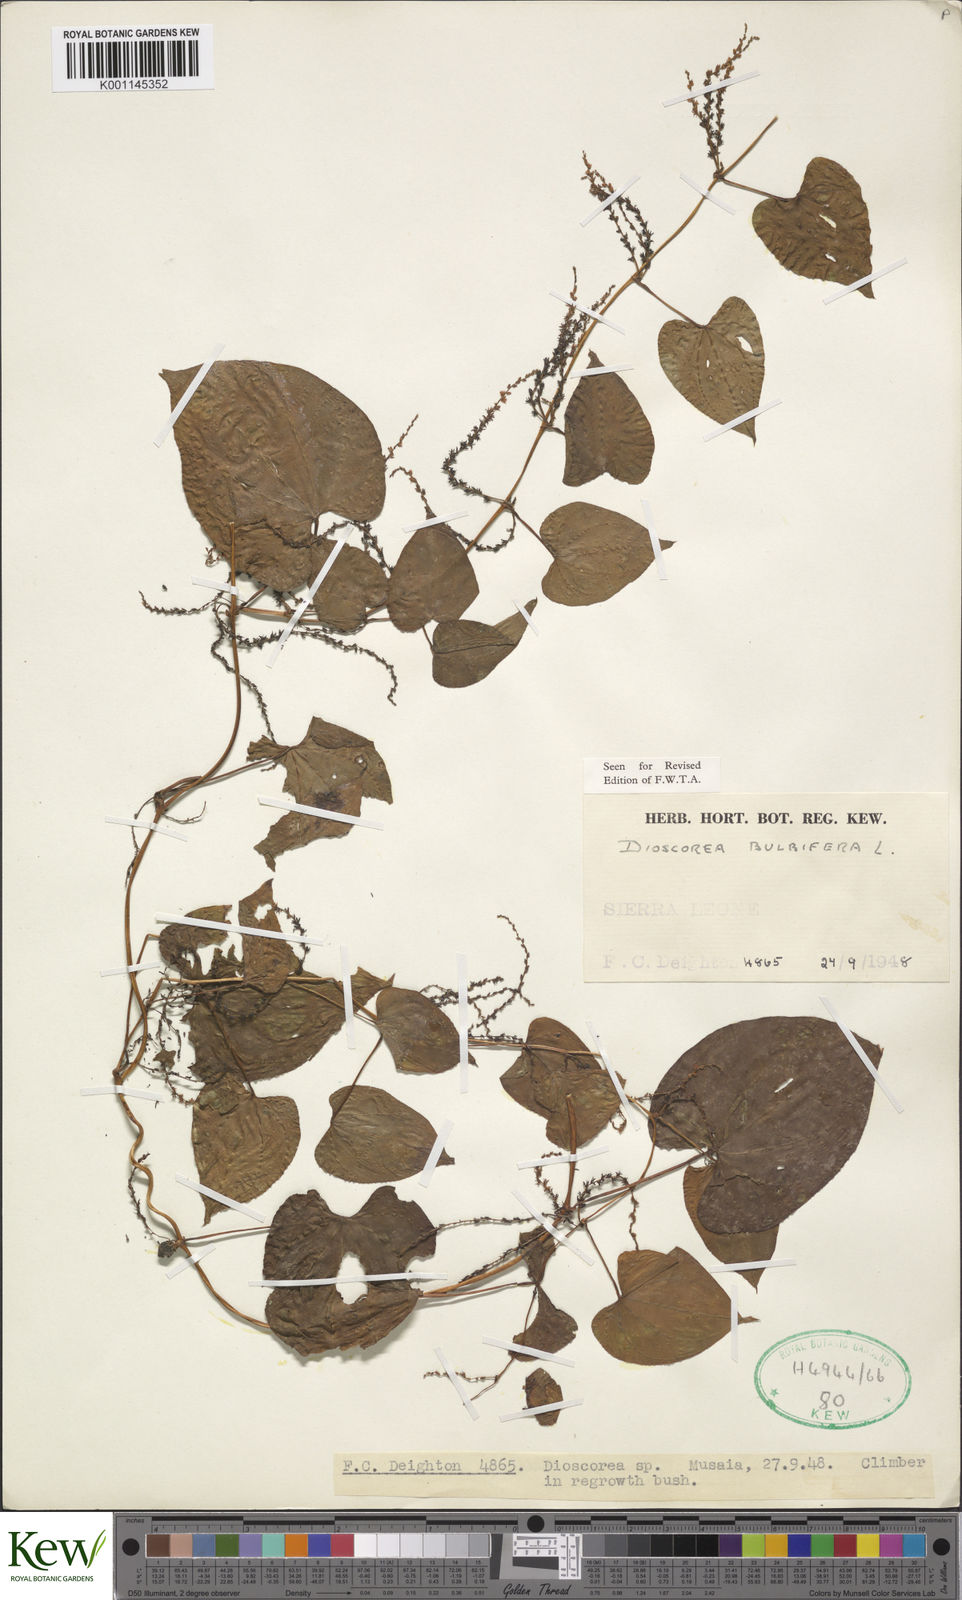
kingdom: Plantae
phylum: Tracheophyta
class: Liliopsida
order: Dioscoreales
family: Dioscoreaceae
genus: Dioscorea
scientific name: Dioscorea bulbifera
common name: Air yam
